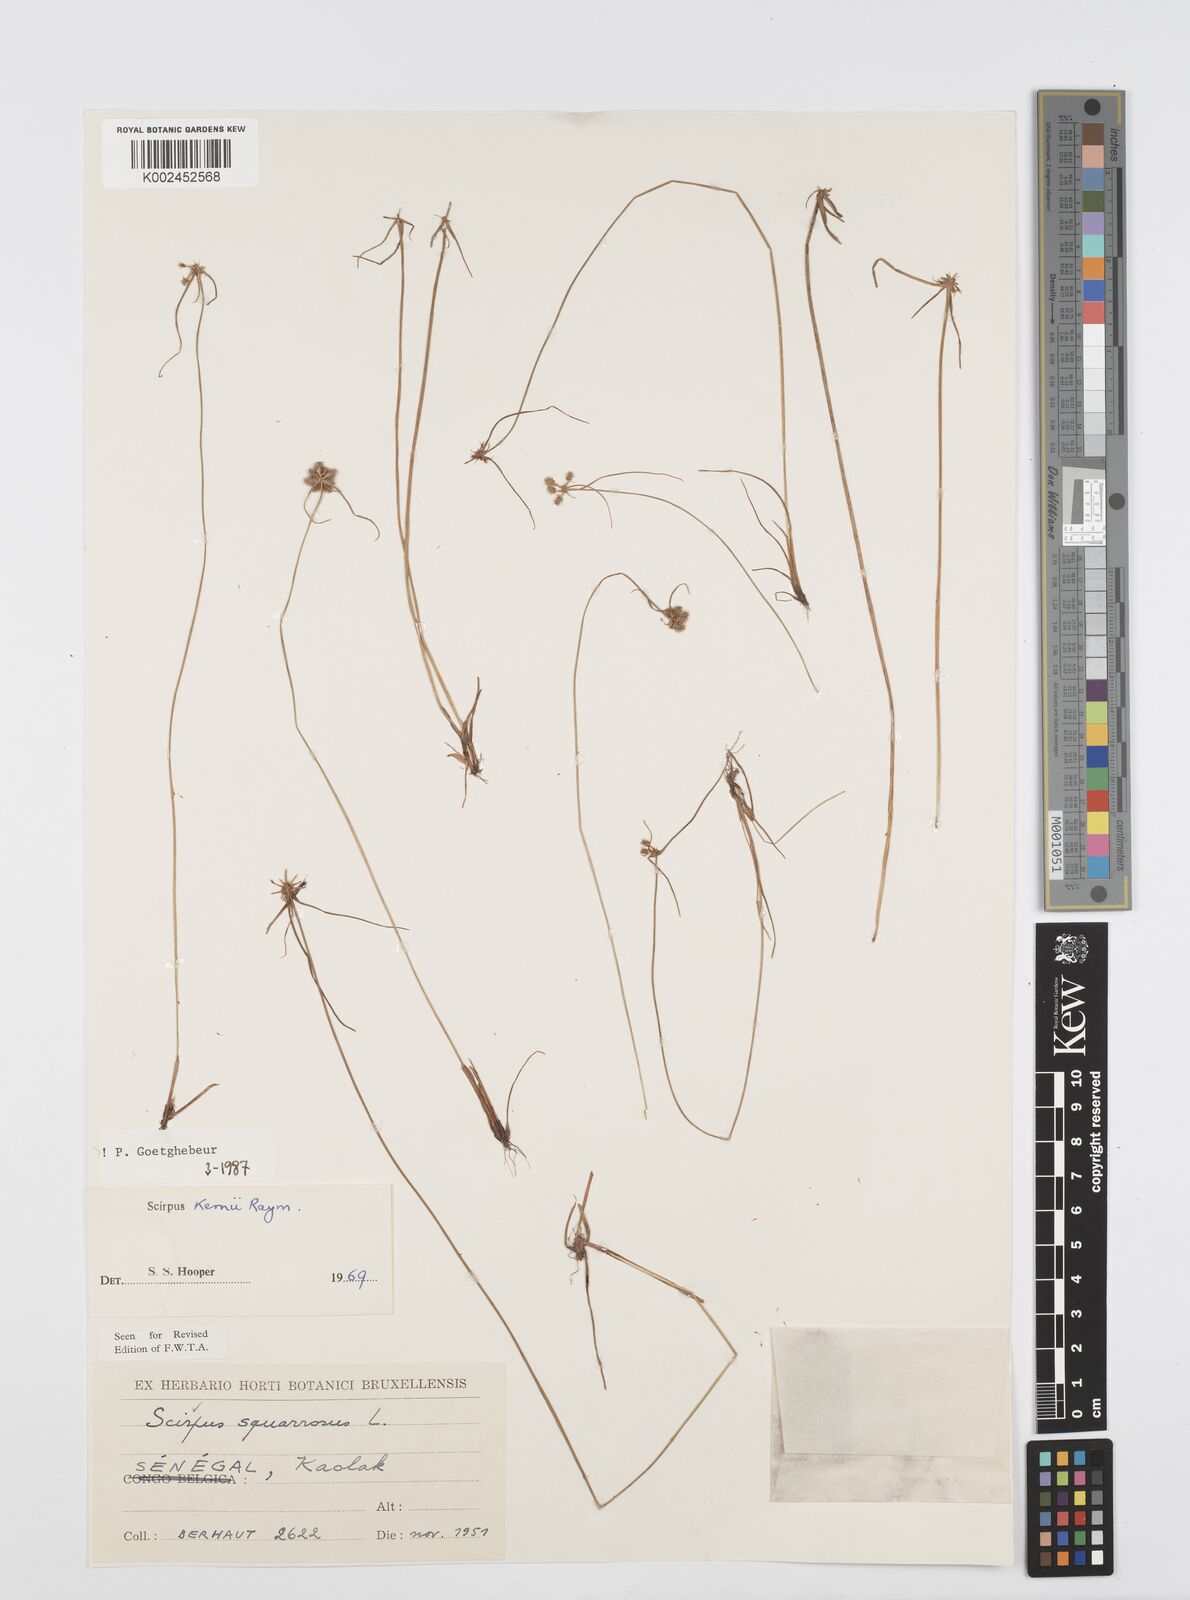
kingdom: Plantae
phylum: Tracheophyta
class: Liliopsida
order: Poales
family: Cyperaceae
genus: Cyperus
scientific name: Cyperus kernii
